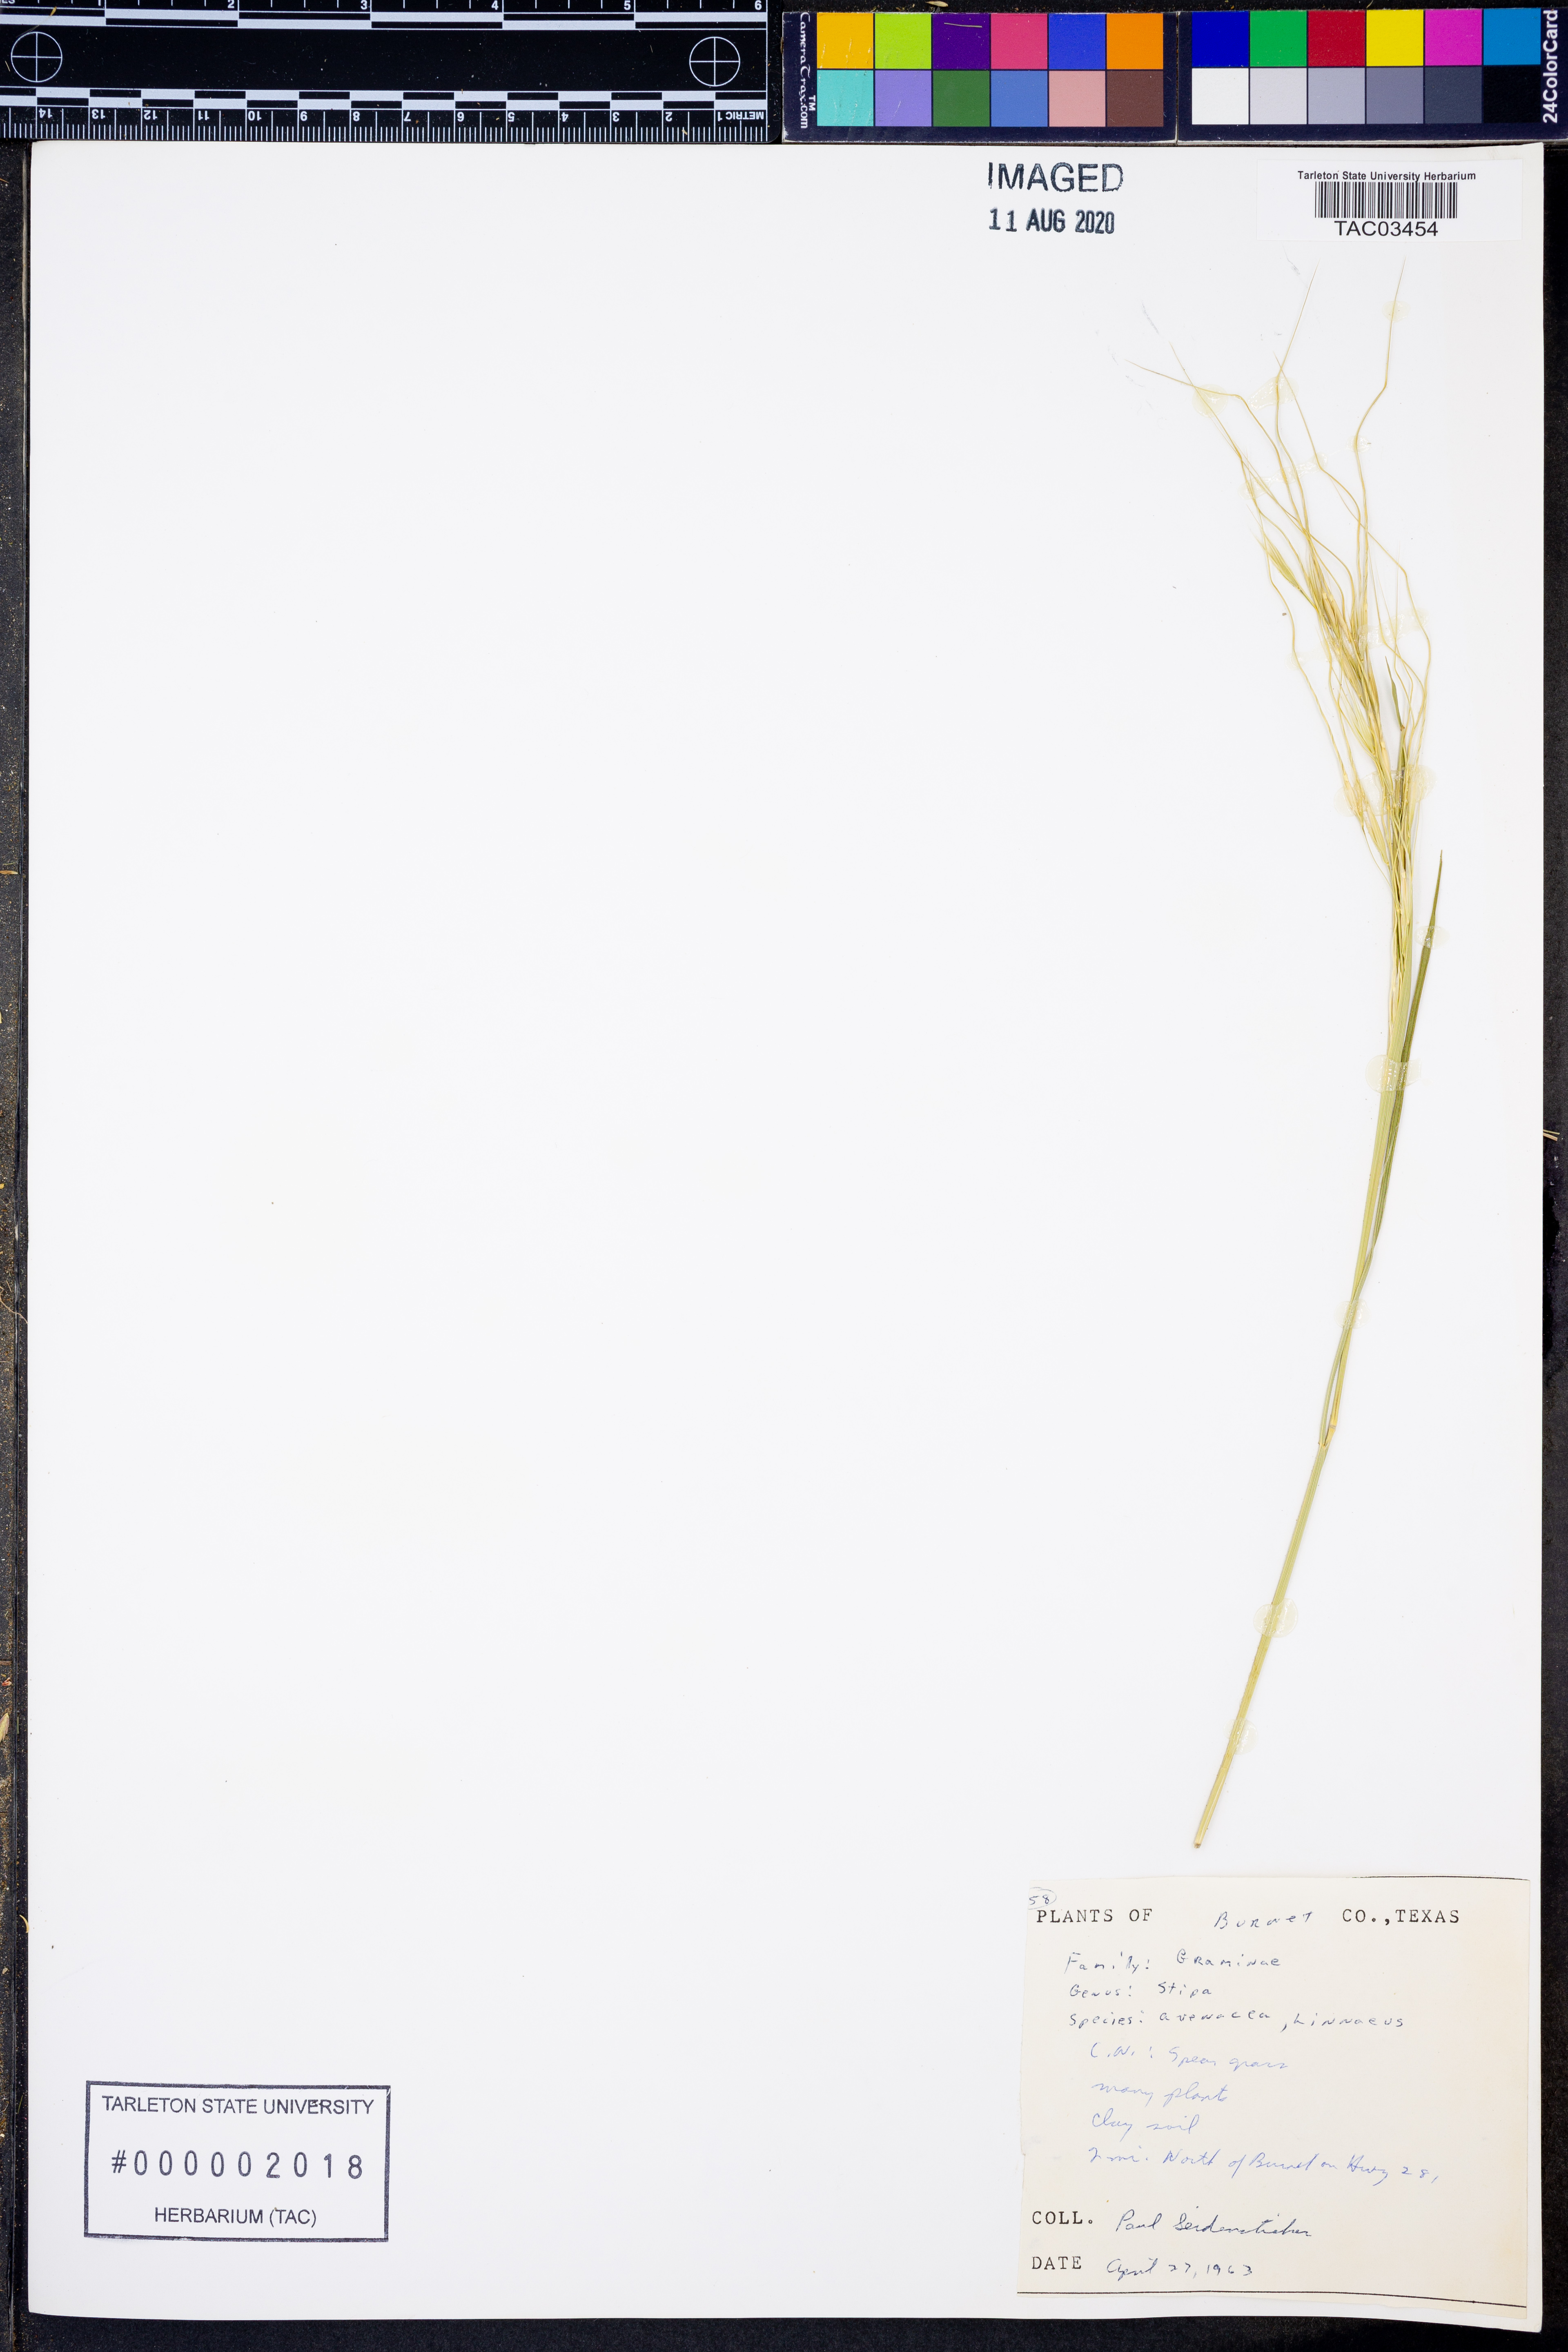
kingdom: Plantae
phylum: Tracheophyta
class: Liliopsida
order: Poales
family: Poaceae
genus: Piptochaetium
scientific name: Piptochaetium avenaceum
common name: Black bunchgrass
